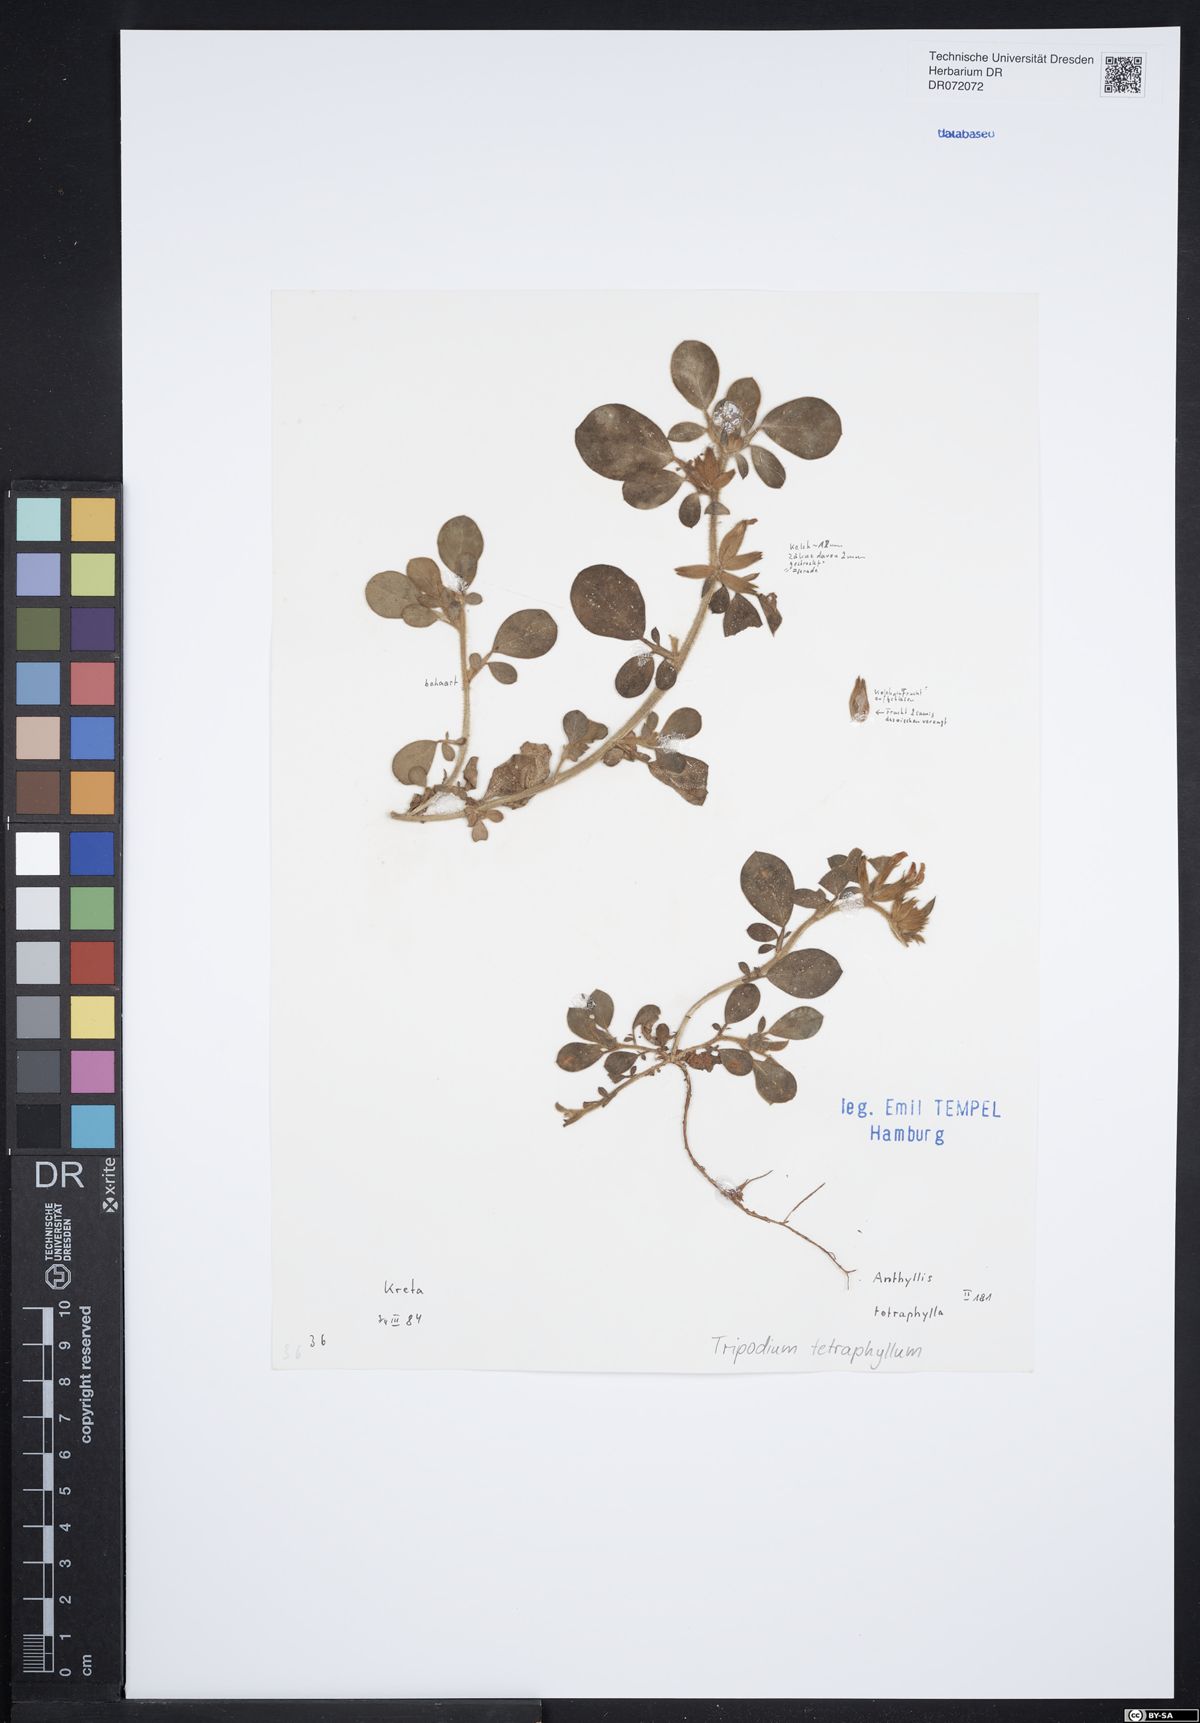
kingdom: Plantae
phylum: Tracheophyta
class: Magnoliopsida
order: Fabales
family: Fabaceae
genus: Tripodion
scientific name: Tripodion tetraphyllum
